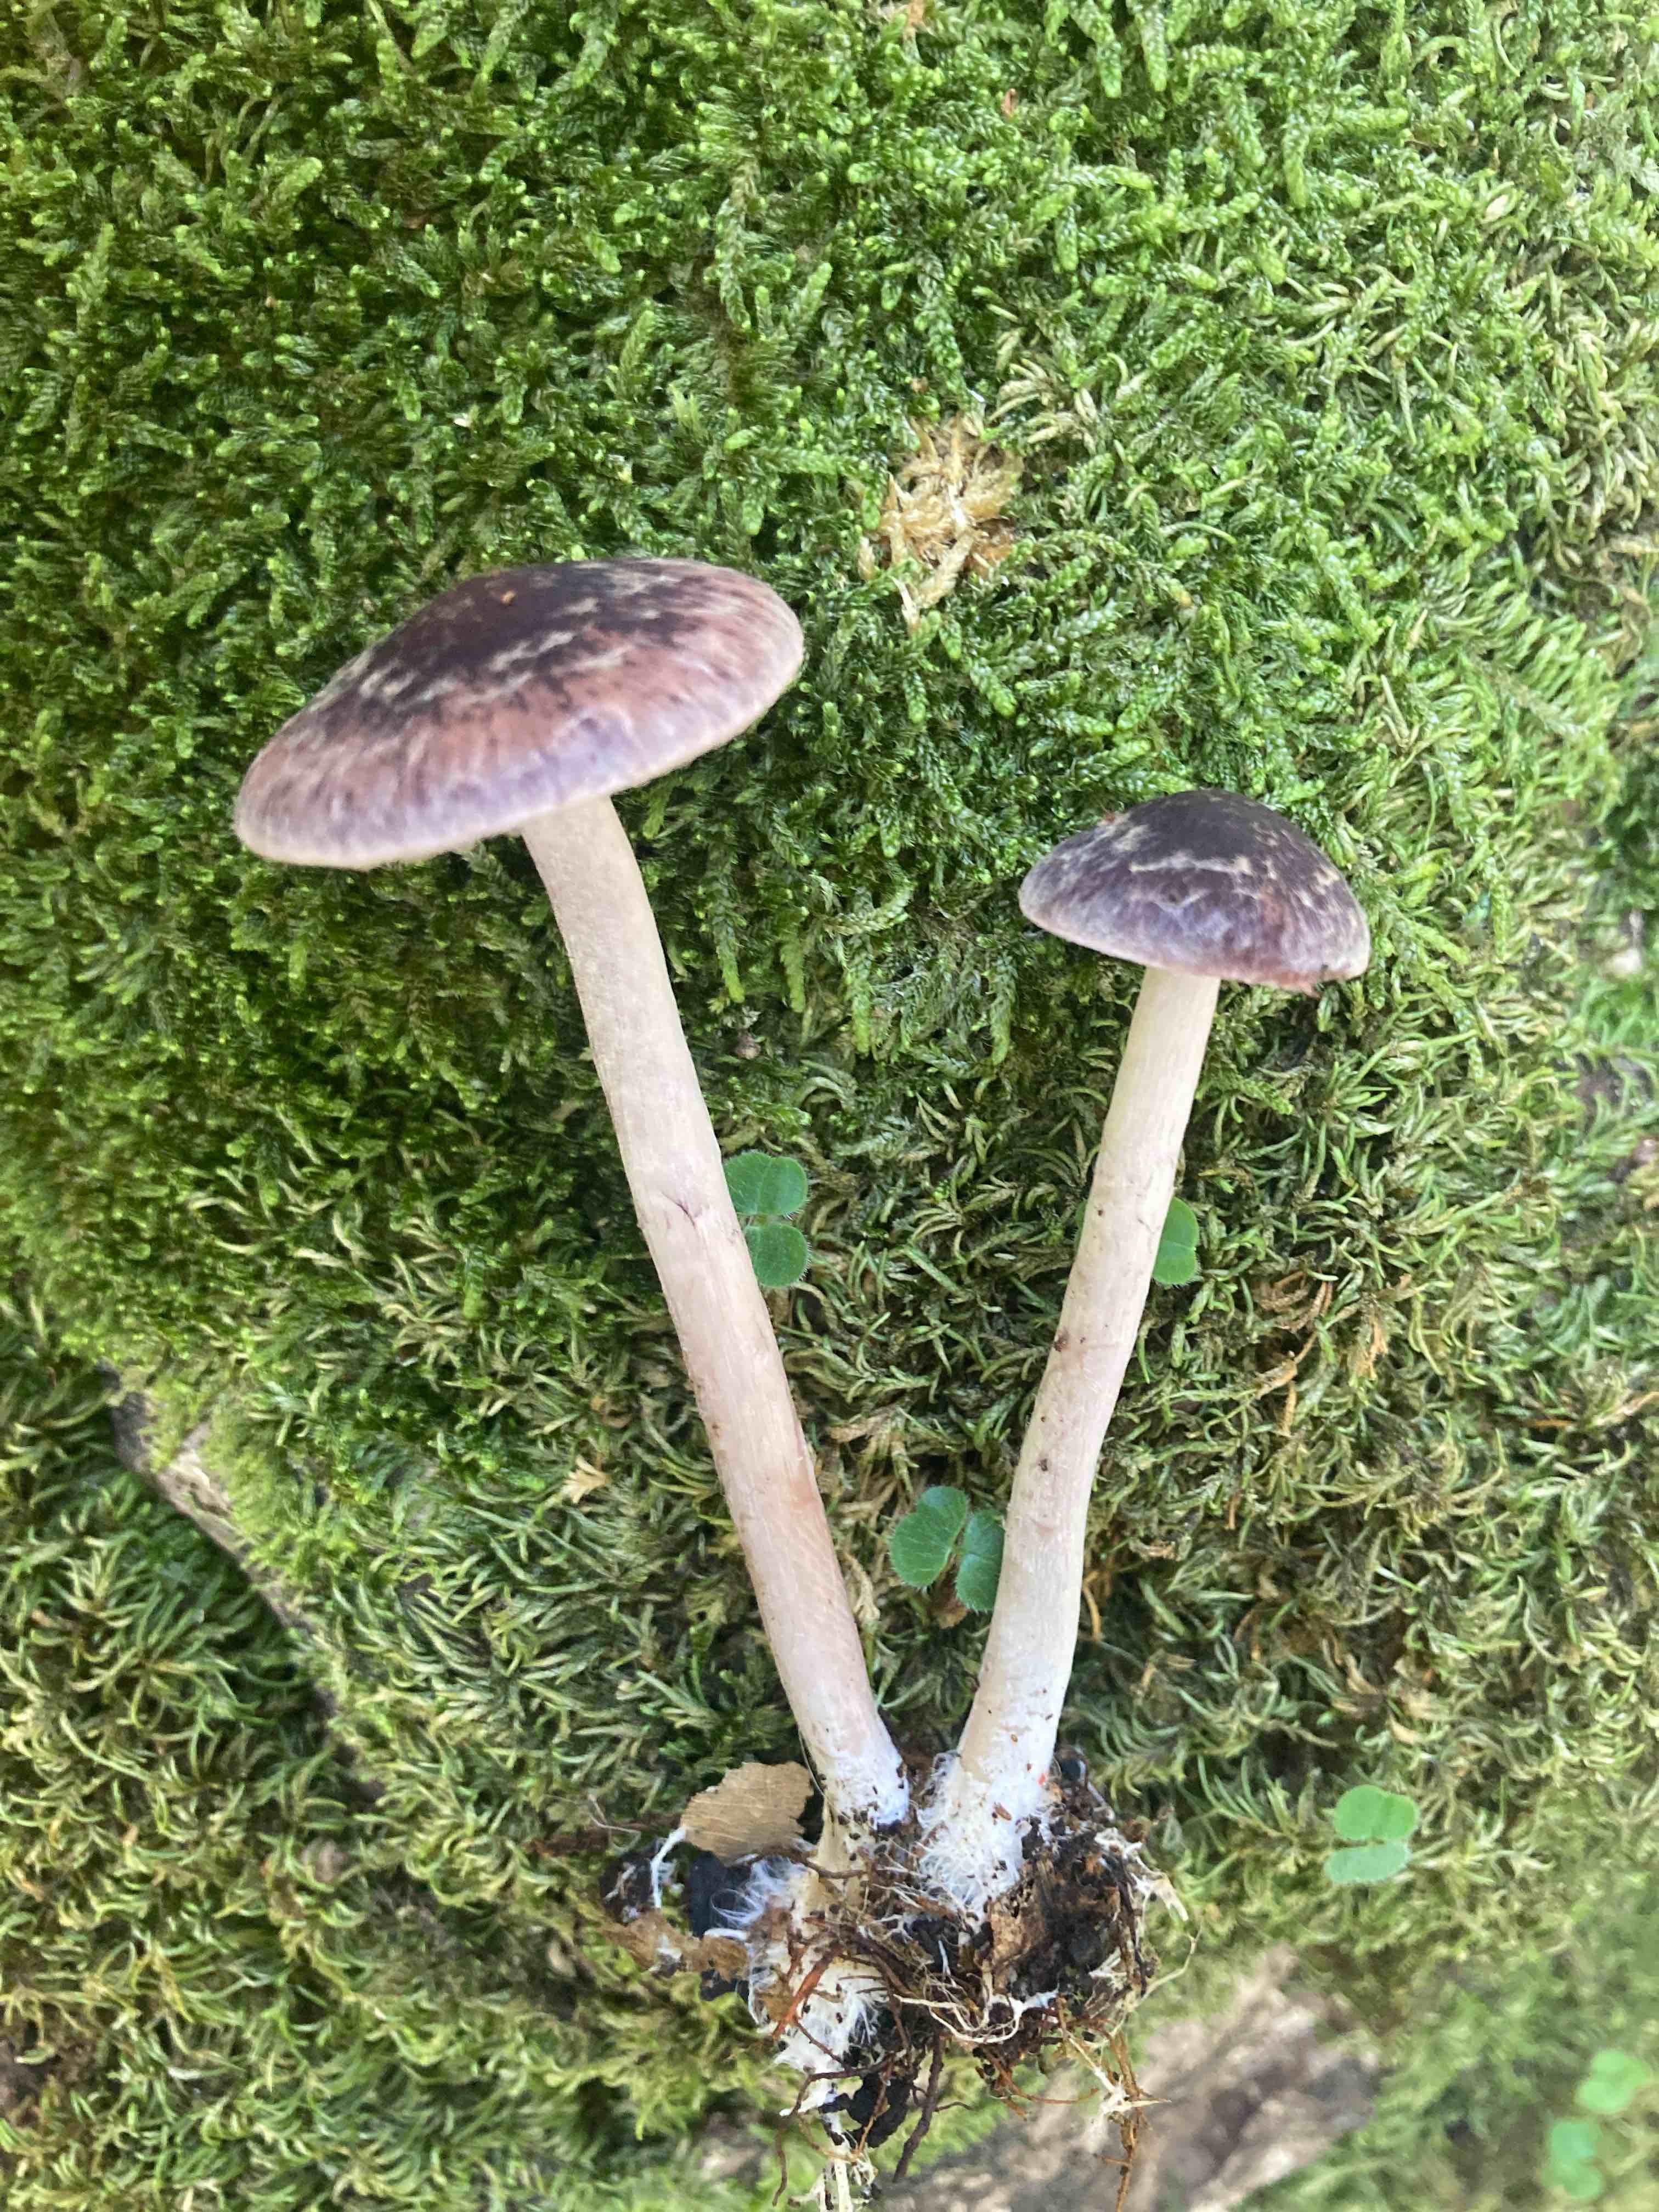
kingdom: Fungi
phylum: Basidiomycota
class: Agaricomycetes
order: Agaricales
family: Psathyrellaceae
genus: Psathyrella
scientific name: Psathyrella bipellis
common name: vinrød mørkhat
